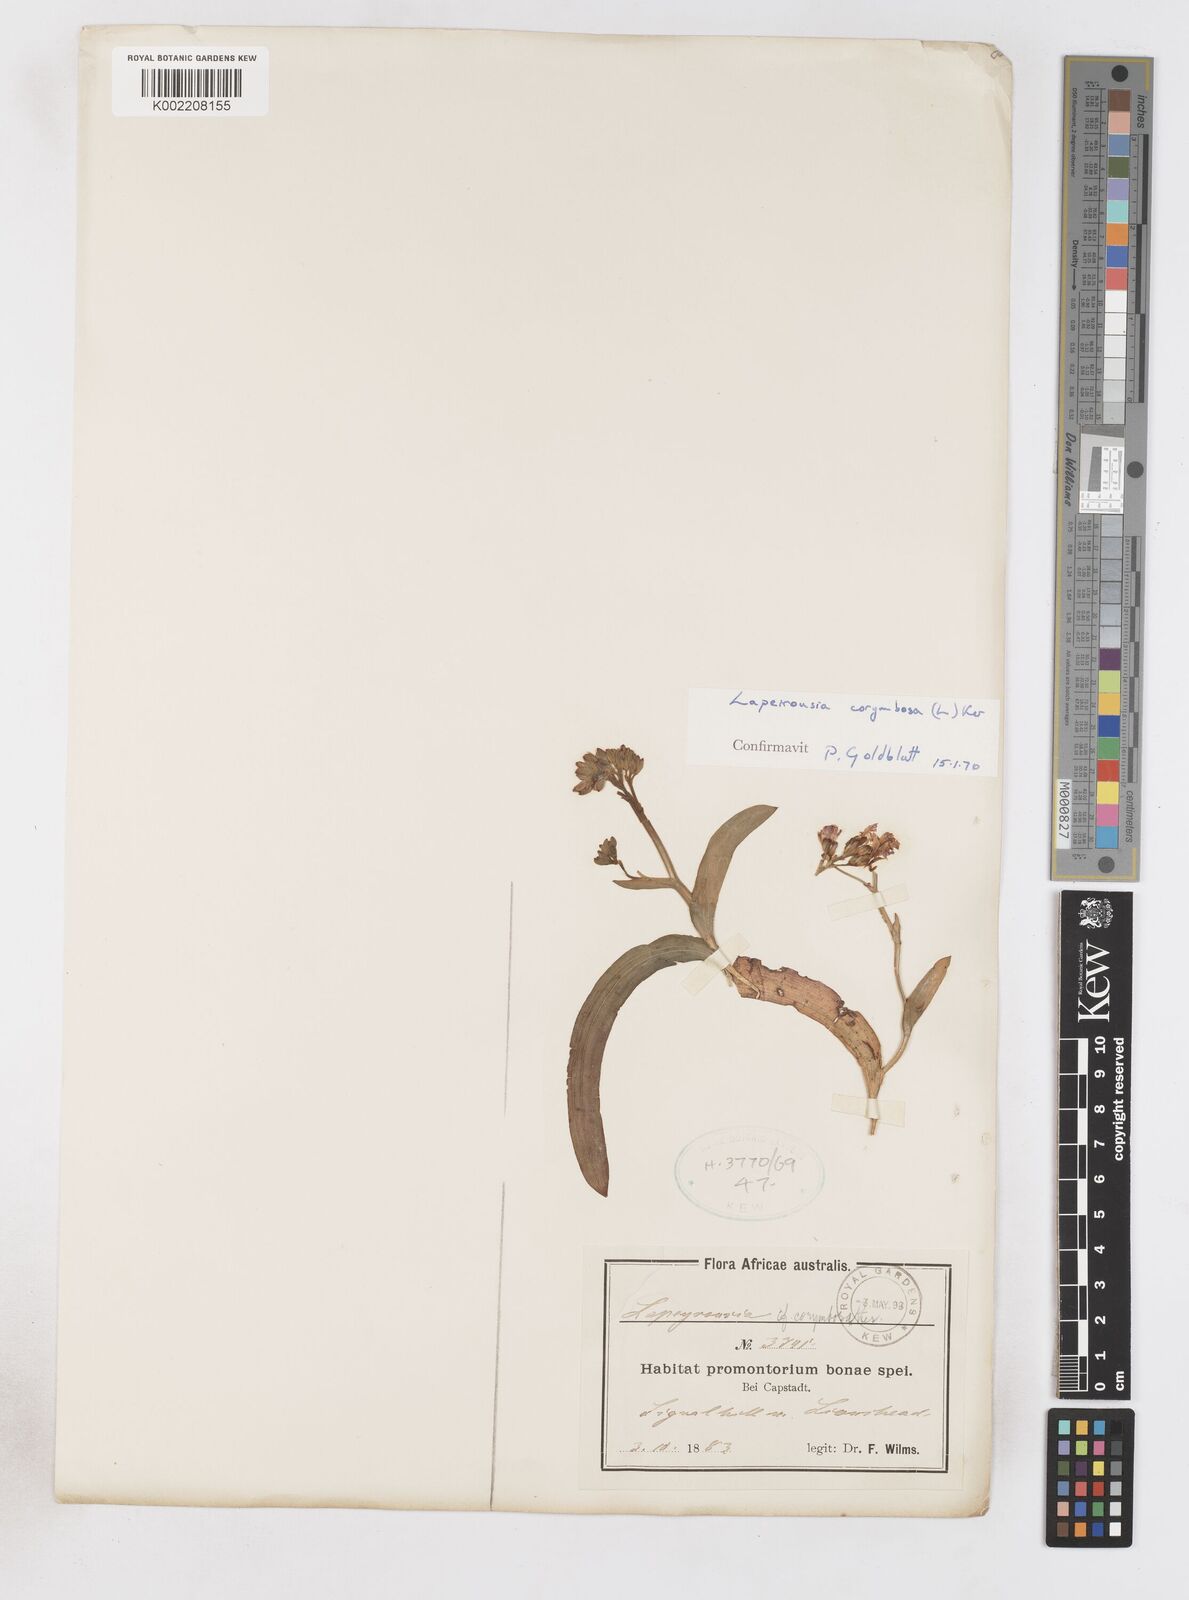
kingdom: Plantae
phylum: Tracheophyta
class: Liliopsida
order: Asparagales
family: Iridaceae
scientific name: Iridaceae
